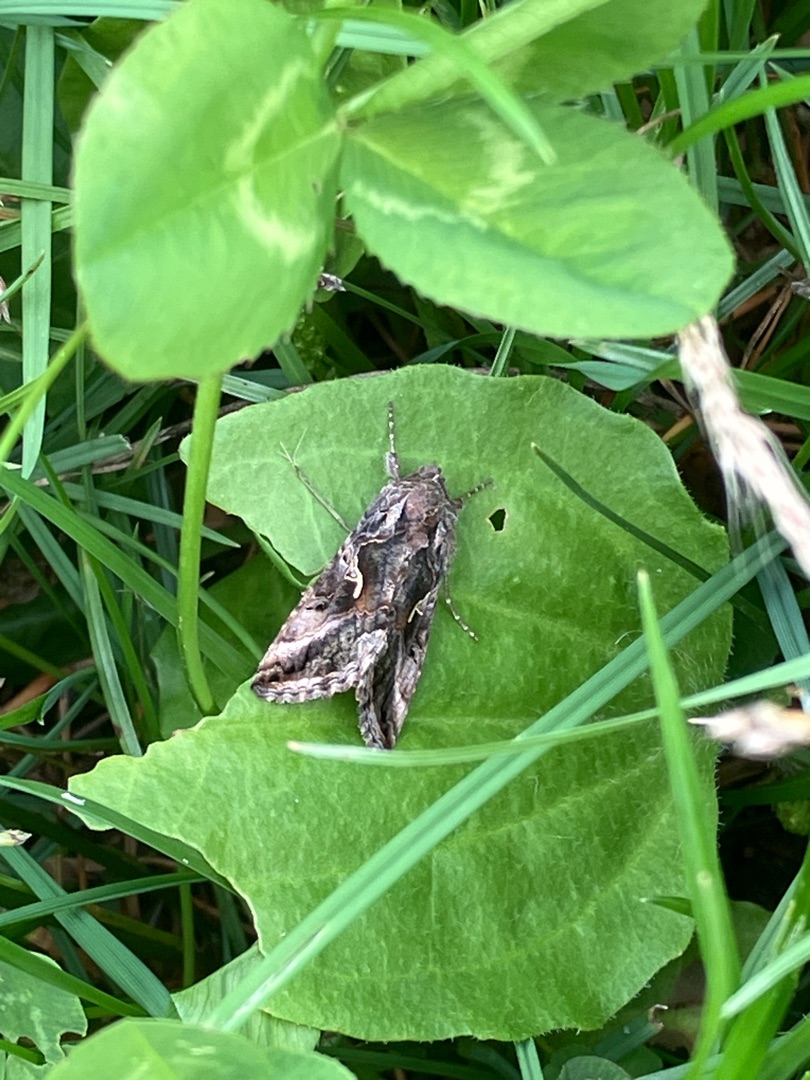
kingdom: Animalia
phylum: Arthropoda
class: Insecta
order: Lepidoptera
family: Noctuidae
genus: Autographa
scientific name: Autographa gamma
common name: Gammaugle
